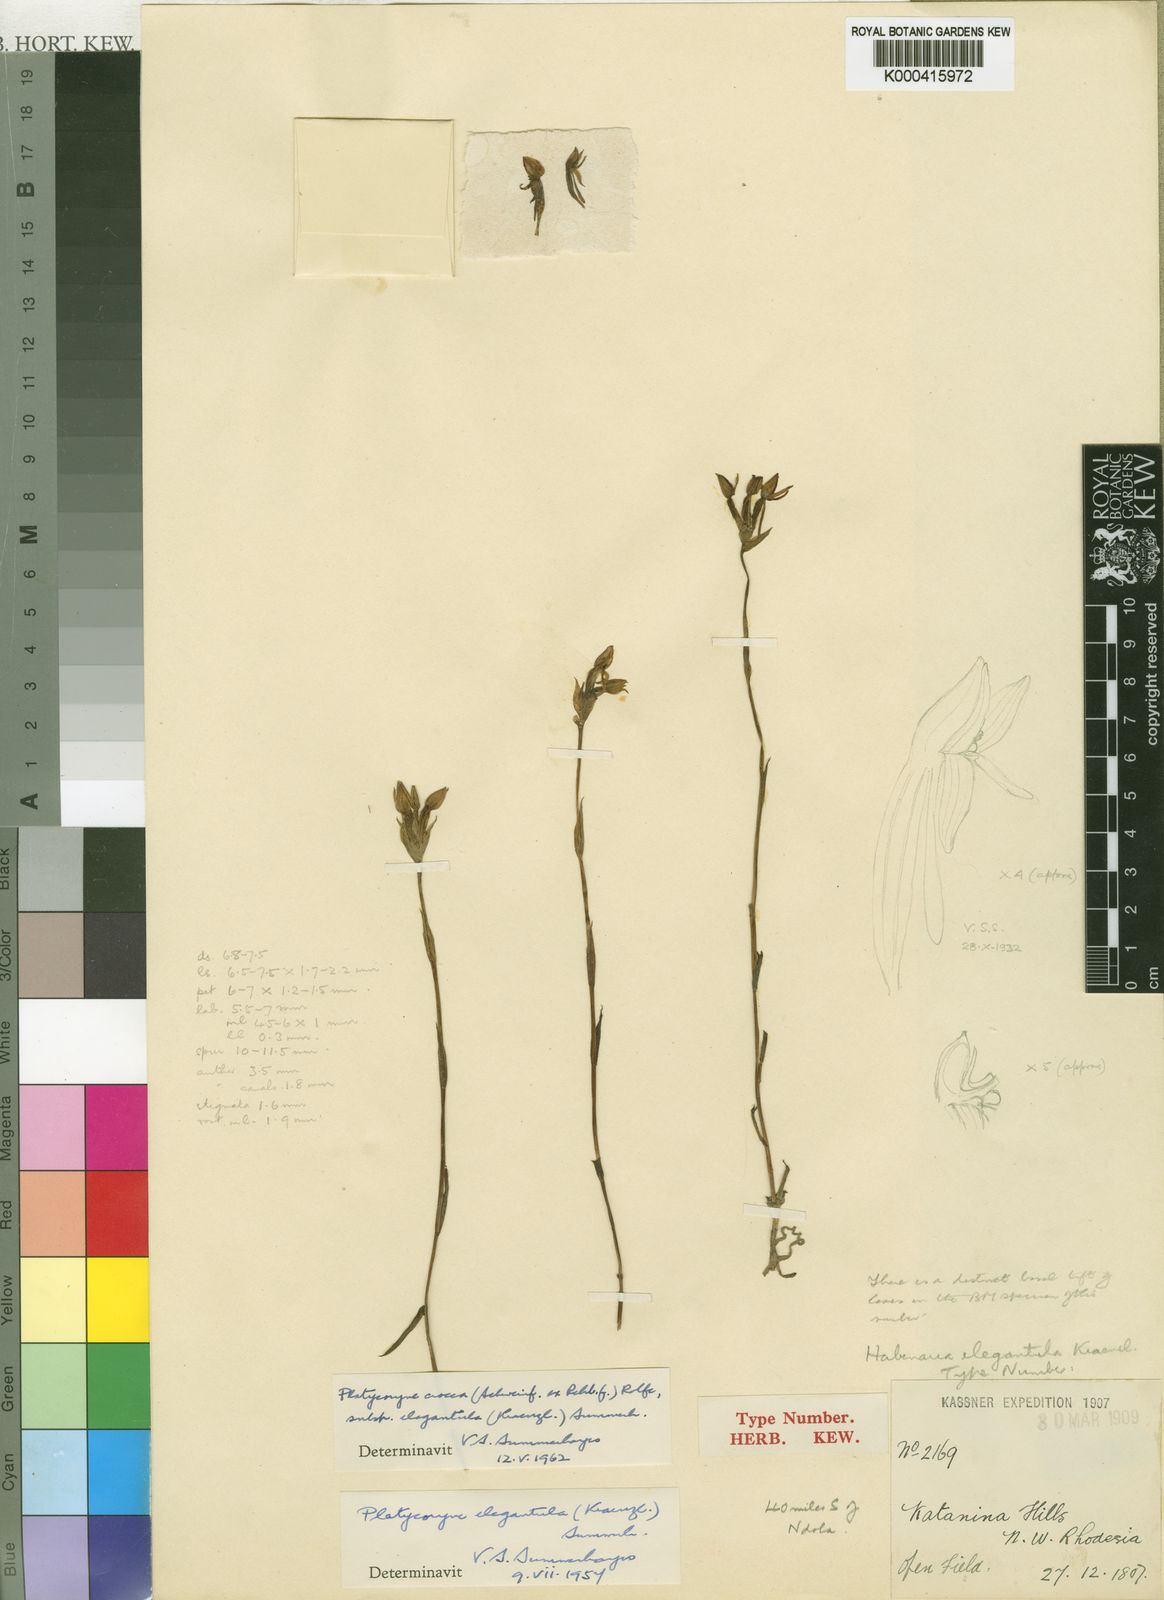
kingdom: Plantae
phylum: Tracheophyta
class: Liliopsida
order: Asparagales
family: Orchidaceae
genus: Platycoryne
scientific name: Platycoryne crocea
